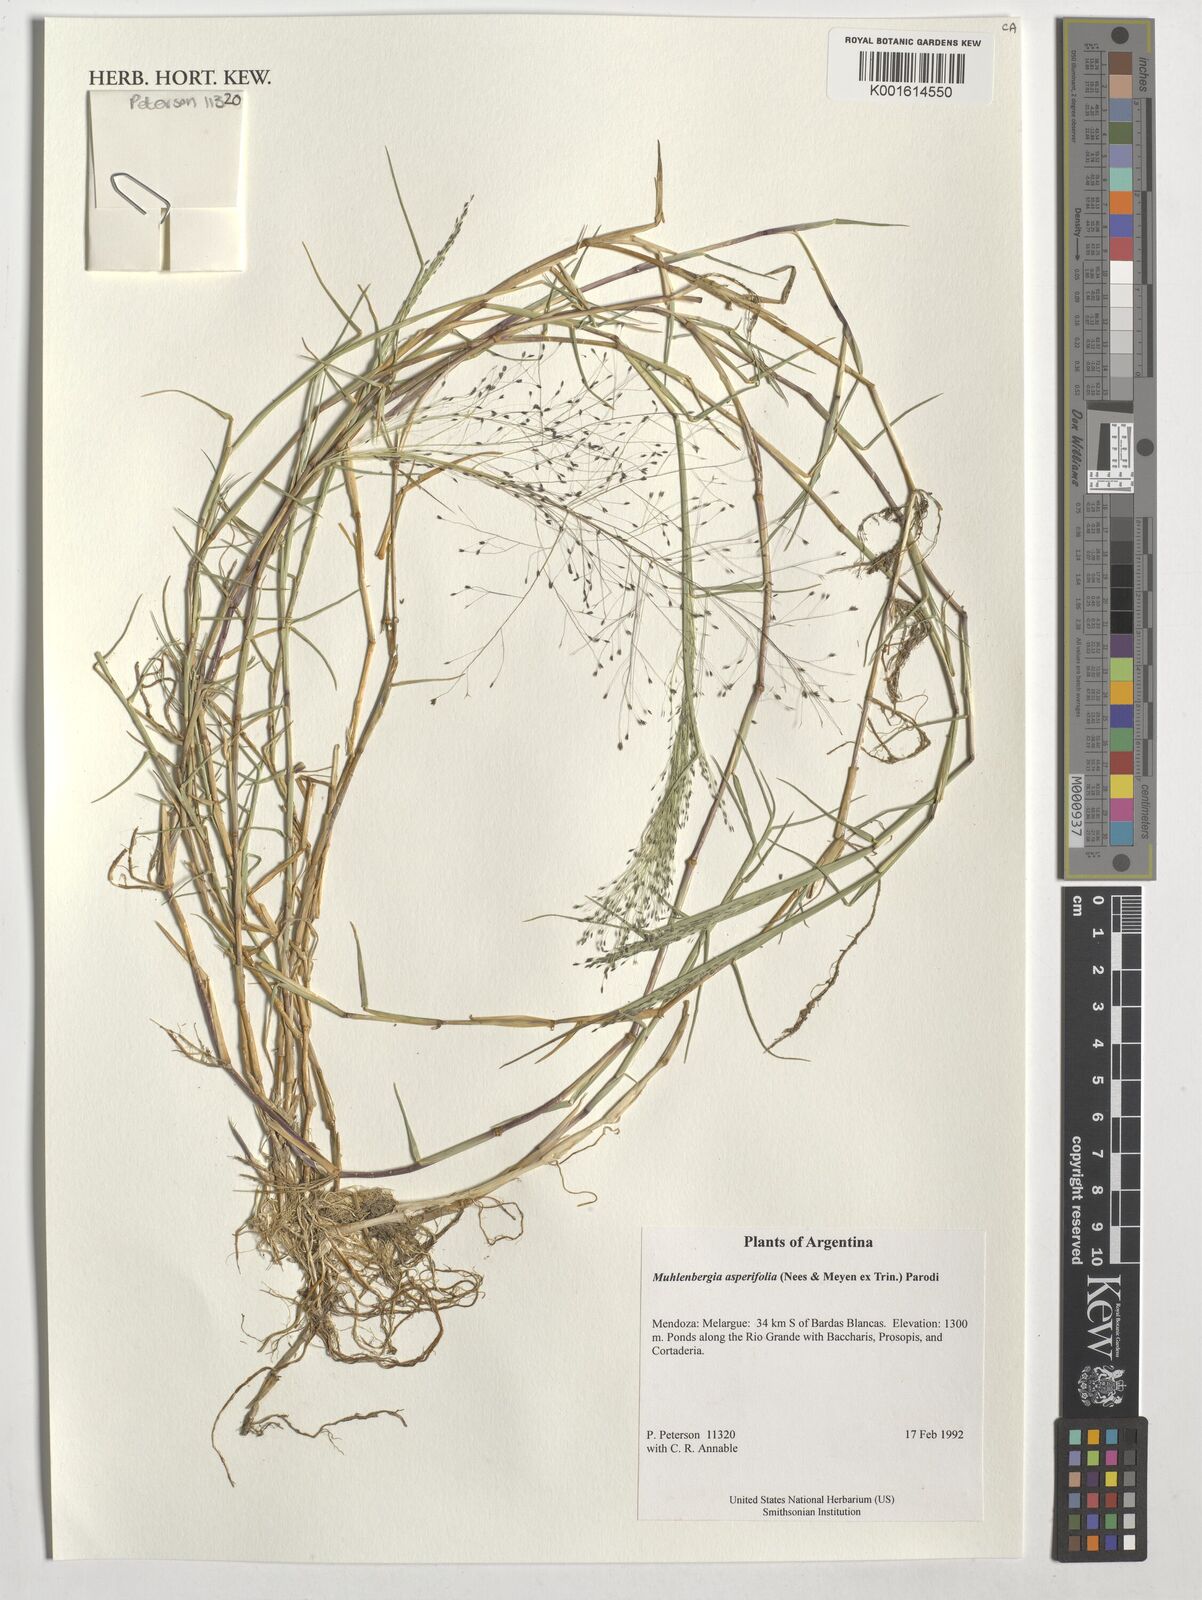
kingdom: Plantae
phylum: Tracheophyta
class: Liliopsida
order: Poales
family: Poaceae
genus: Muhlenbergia
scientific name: Muhlenbergia asperifolia
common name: Alkali muhly
